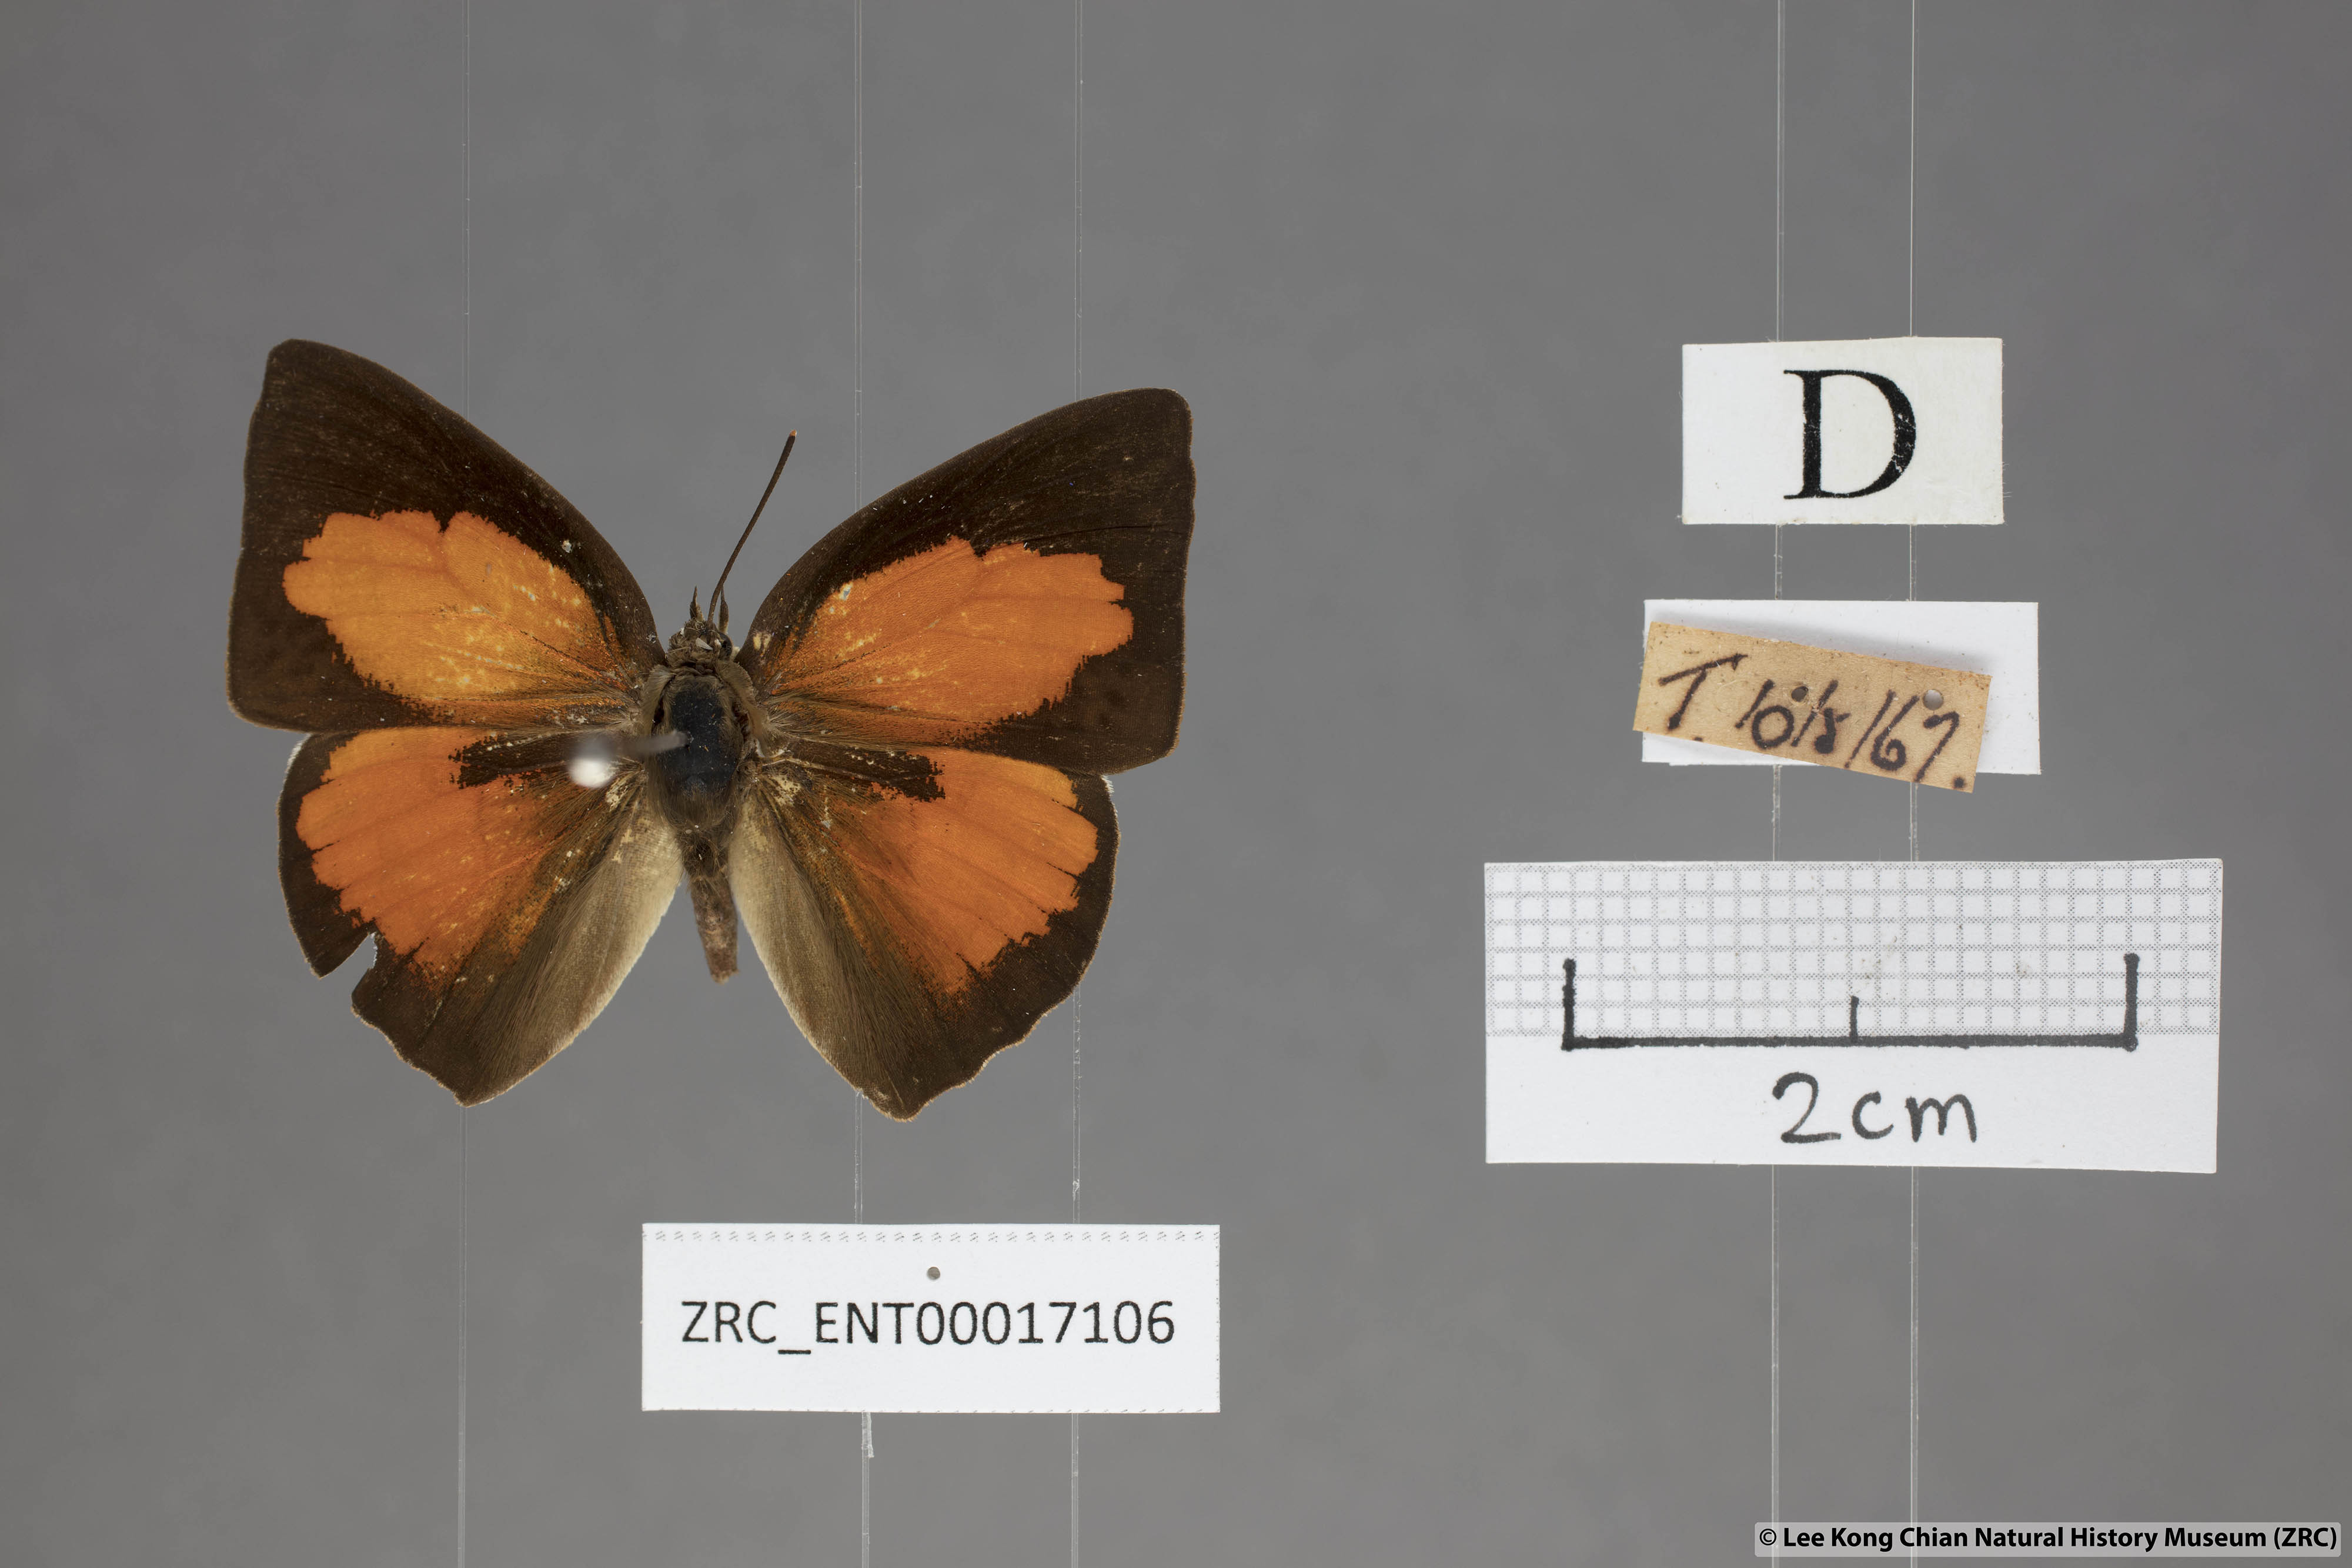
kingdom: Animalia
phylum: Arthropoda
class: Insecta
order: Lepidoptera
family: Lycaenidae
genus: Curetis
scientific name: Curetis bulis
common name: Bright sunbeam
